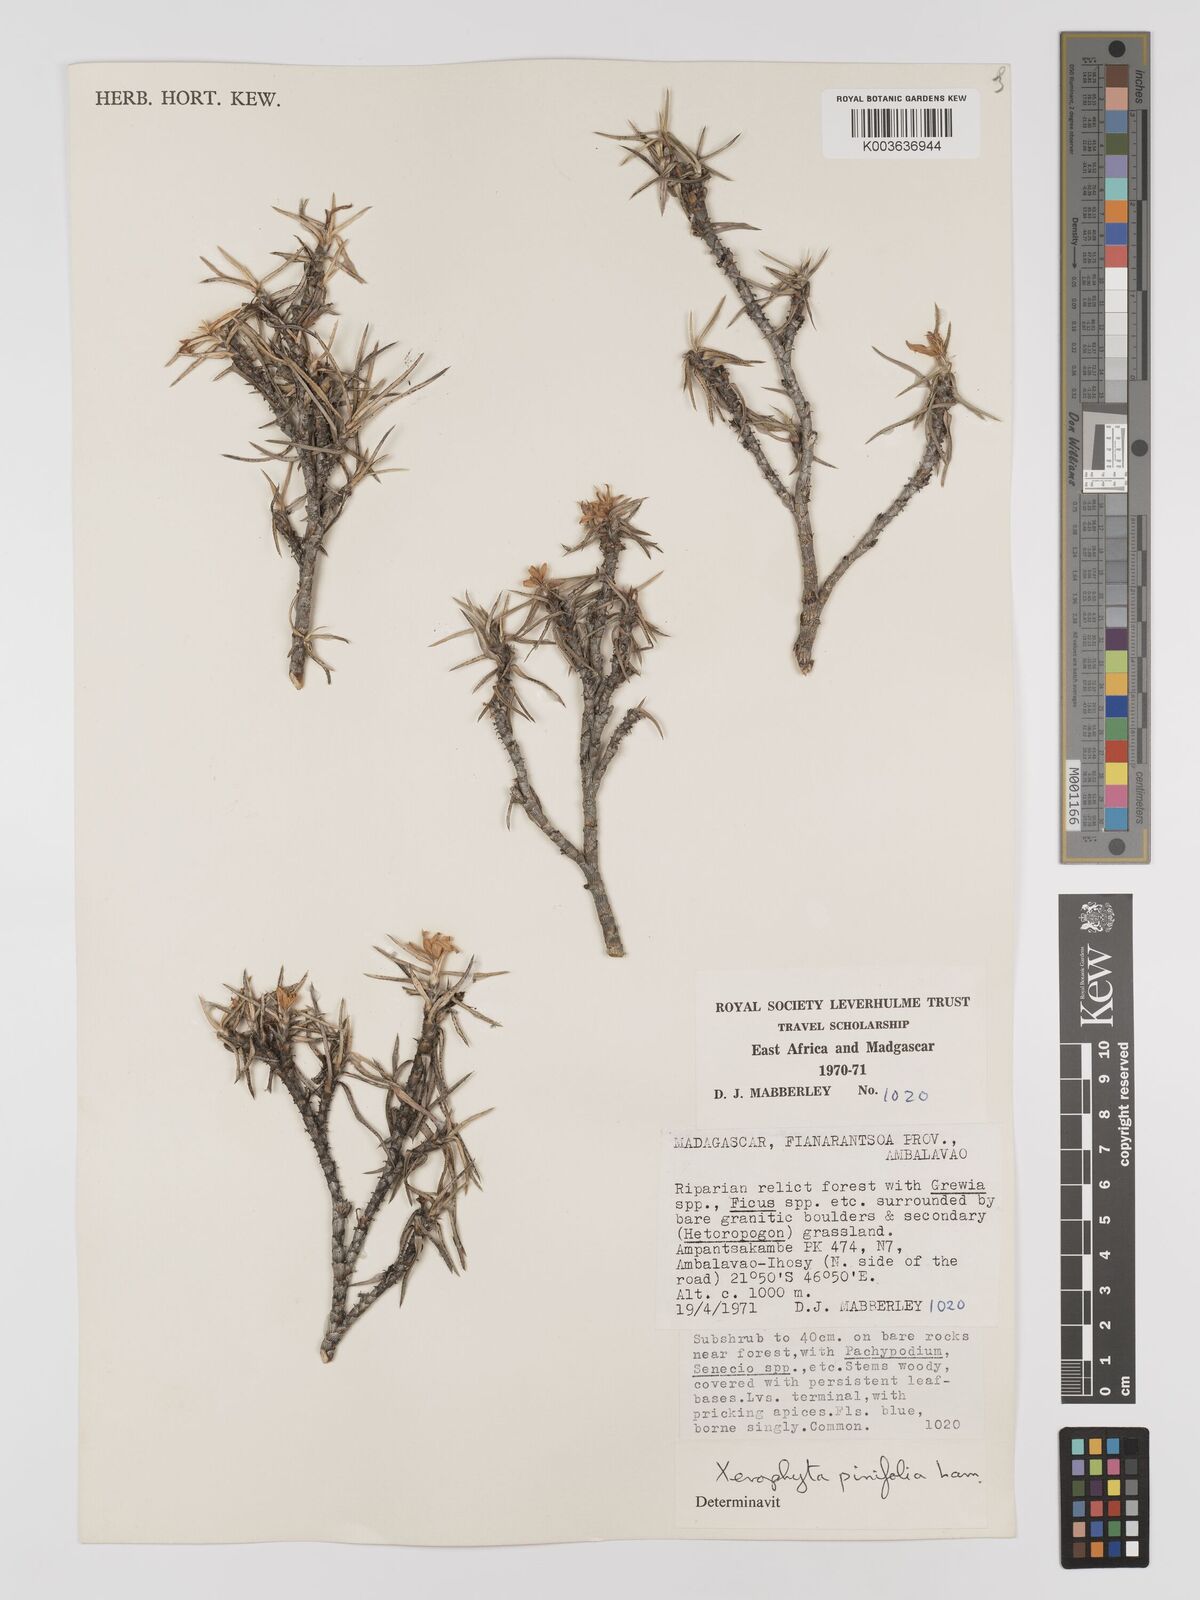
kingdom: Plantae
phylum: Tracheophyta
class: Liliopsida
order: Pandanales
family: Velloziaceae
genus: Xerophyta
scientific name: Xerophyta pinifolia
